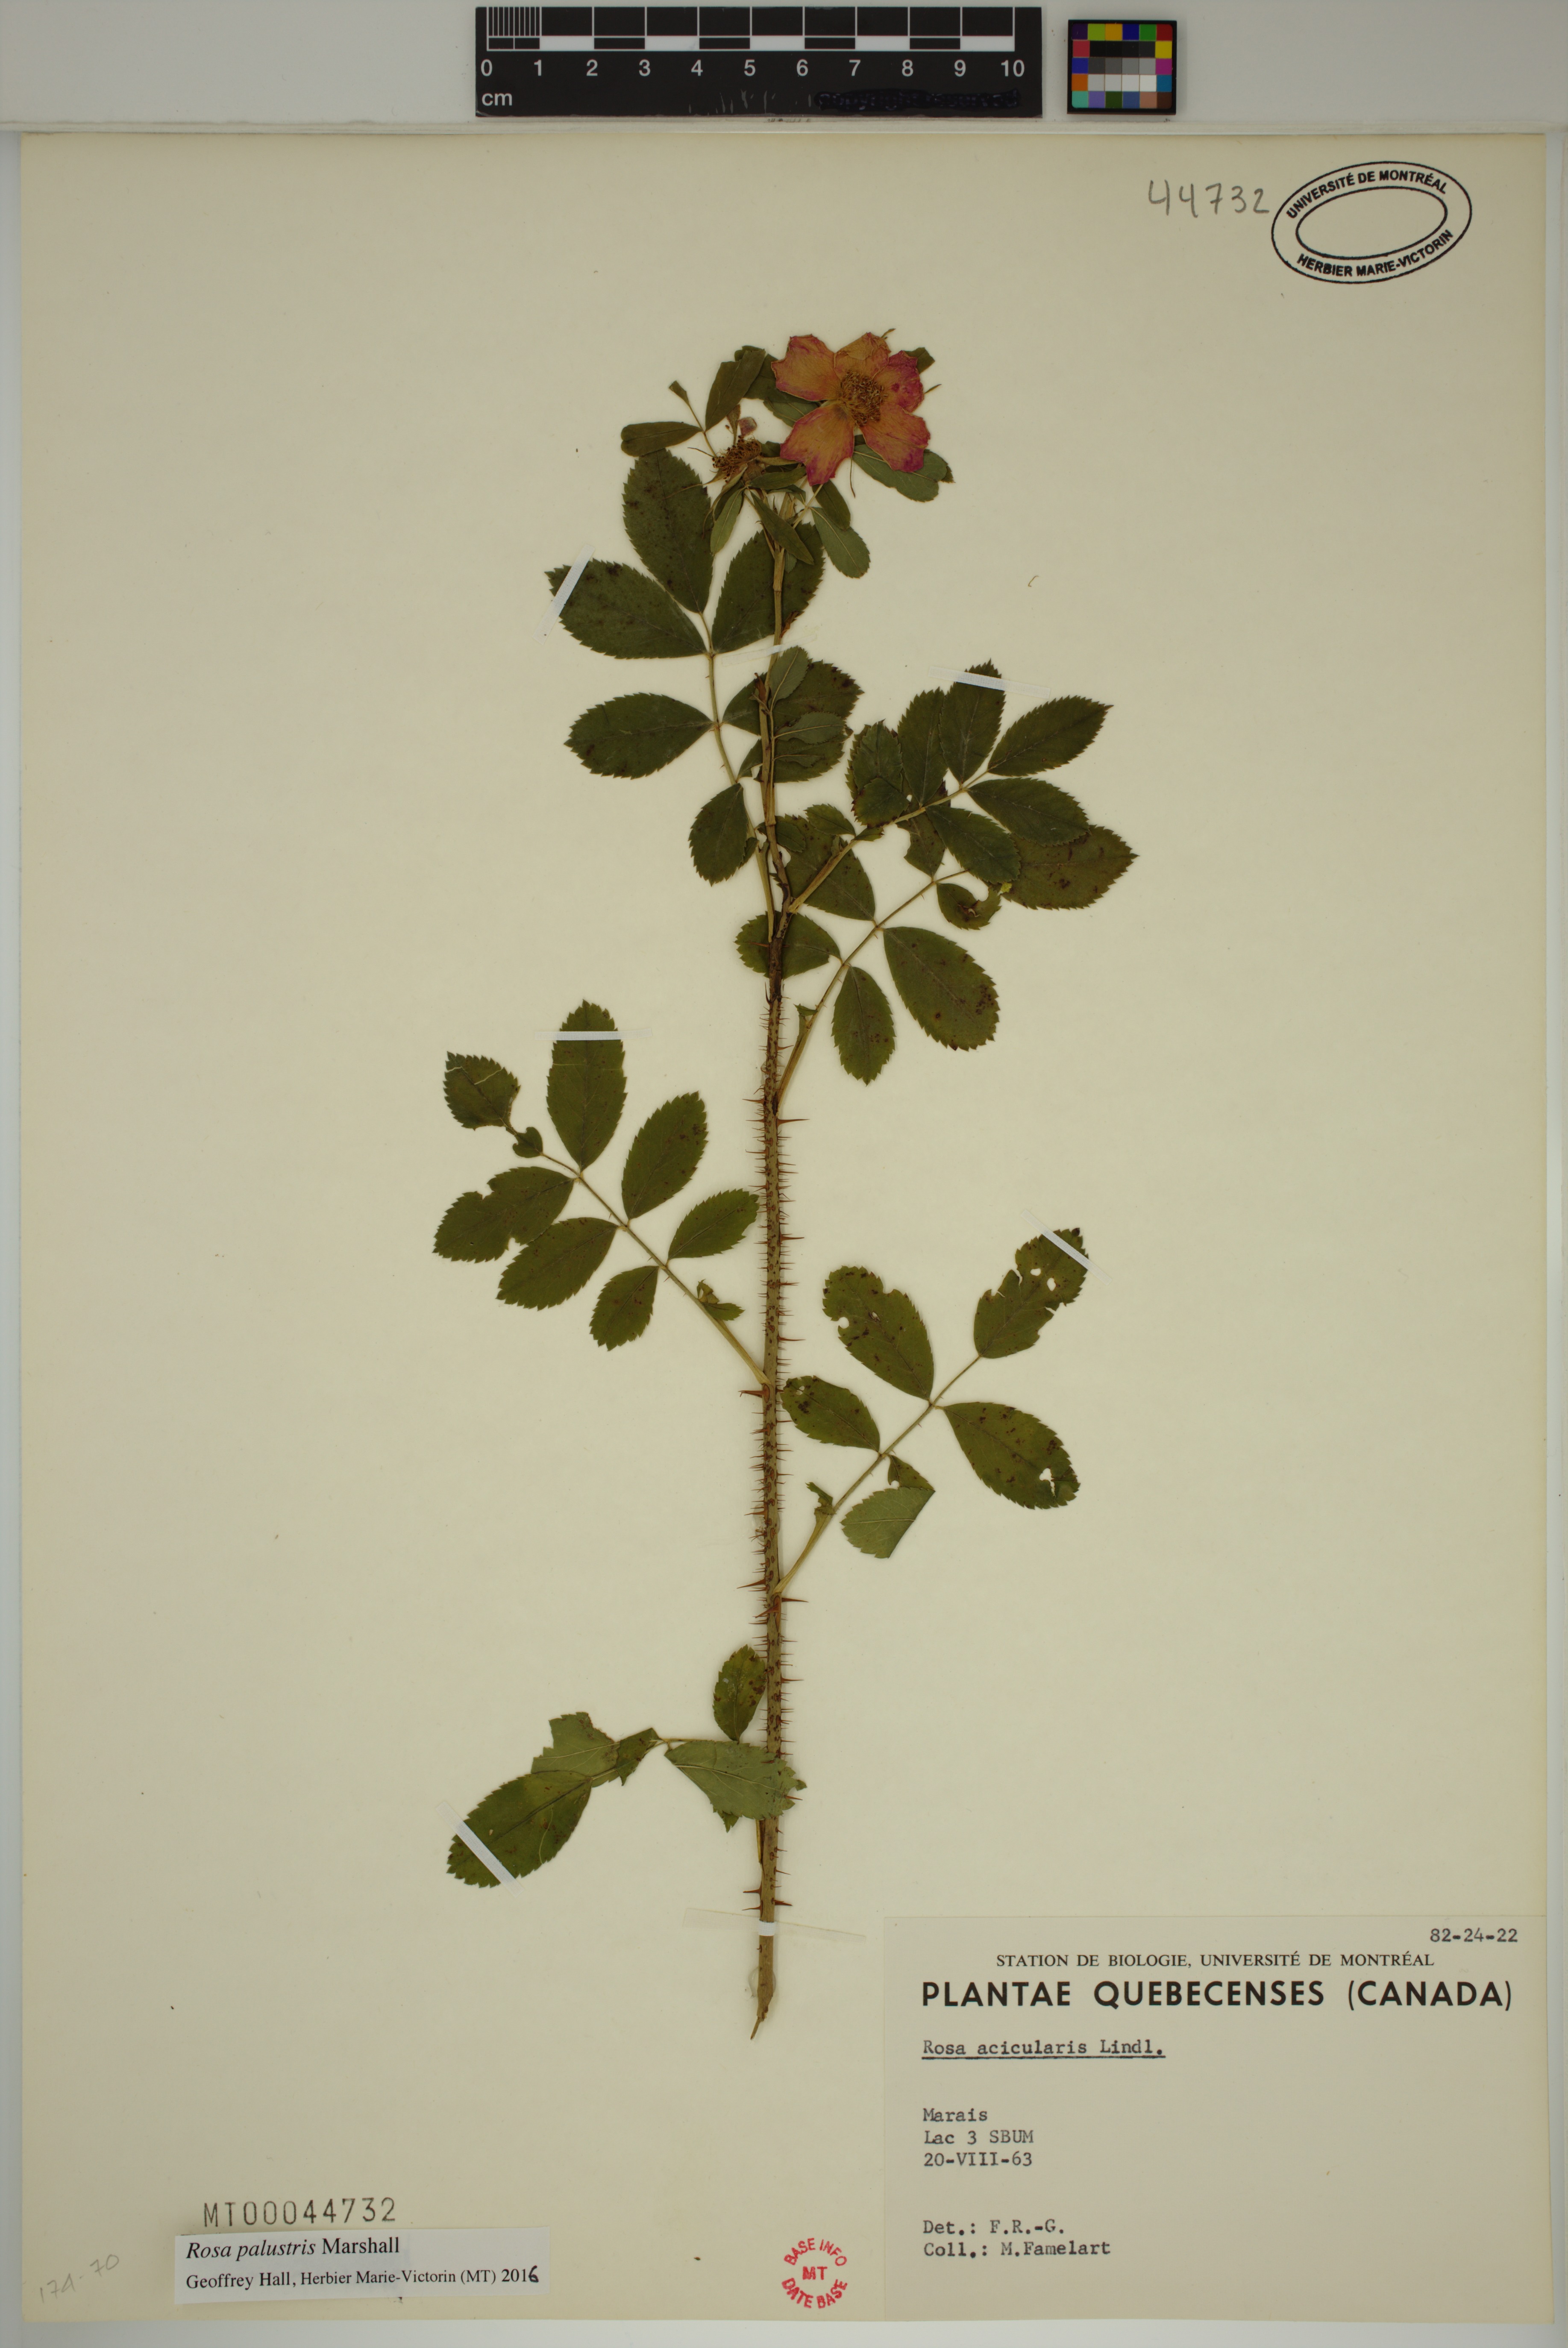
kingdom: Plantae
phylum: Tracheophyta
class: Magnoliopsida
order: Rosales
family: Rosaceae
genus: Rosa
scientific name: Rosa palustris
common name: Swamp rose
